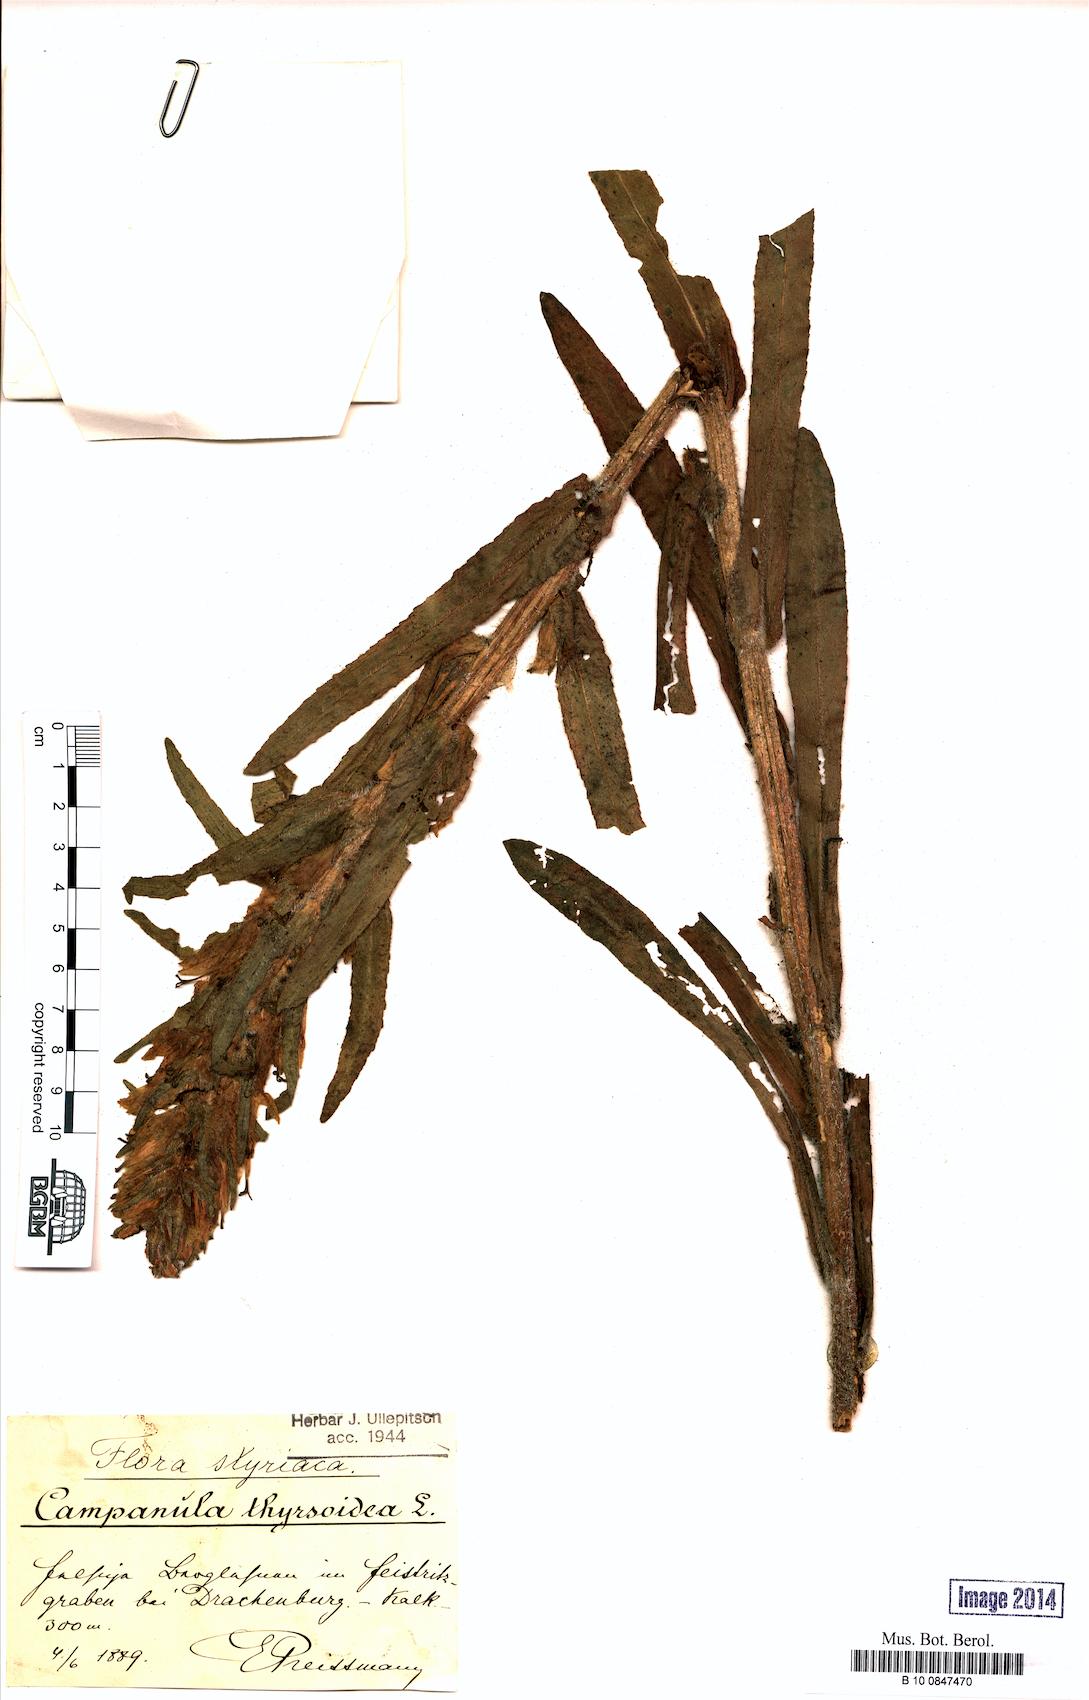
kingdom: Plantae
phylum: Tracheophyta
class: Magnoliopsida
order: Asterales
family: Campanulaceae
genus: Campanula
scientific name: Campanula thyrsoides
